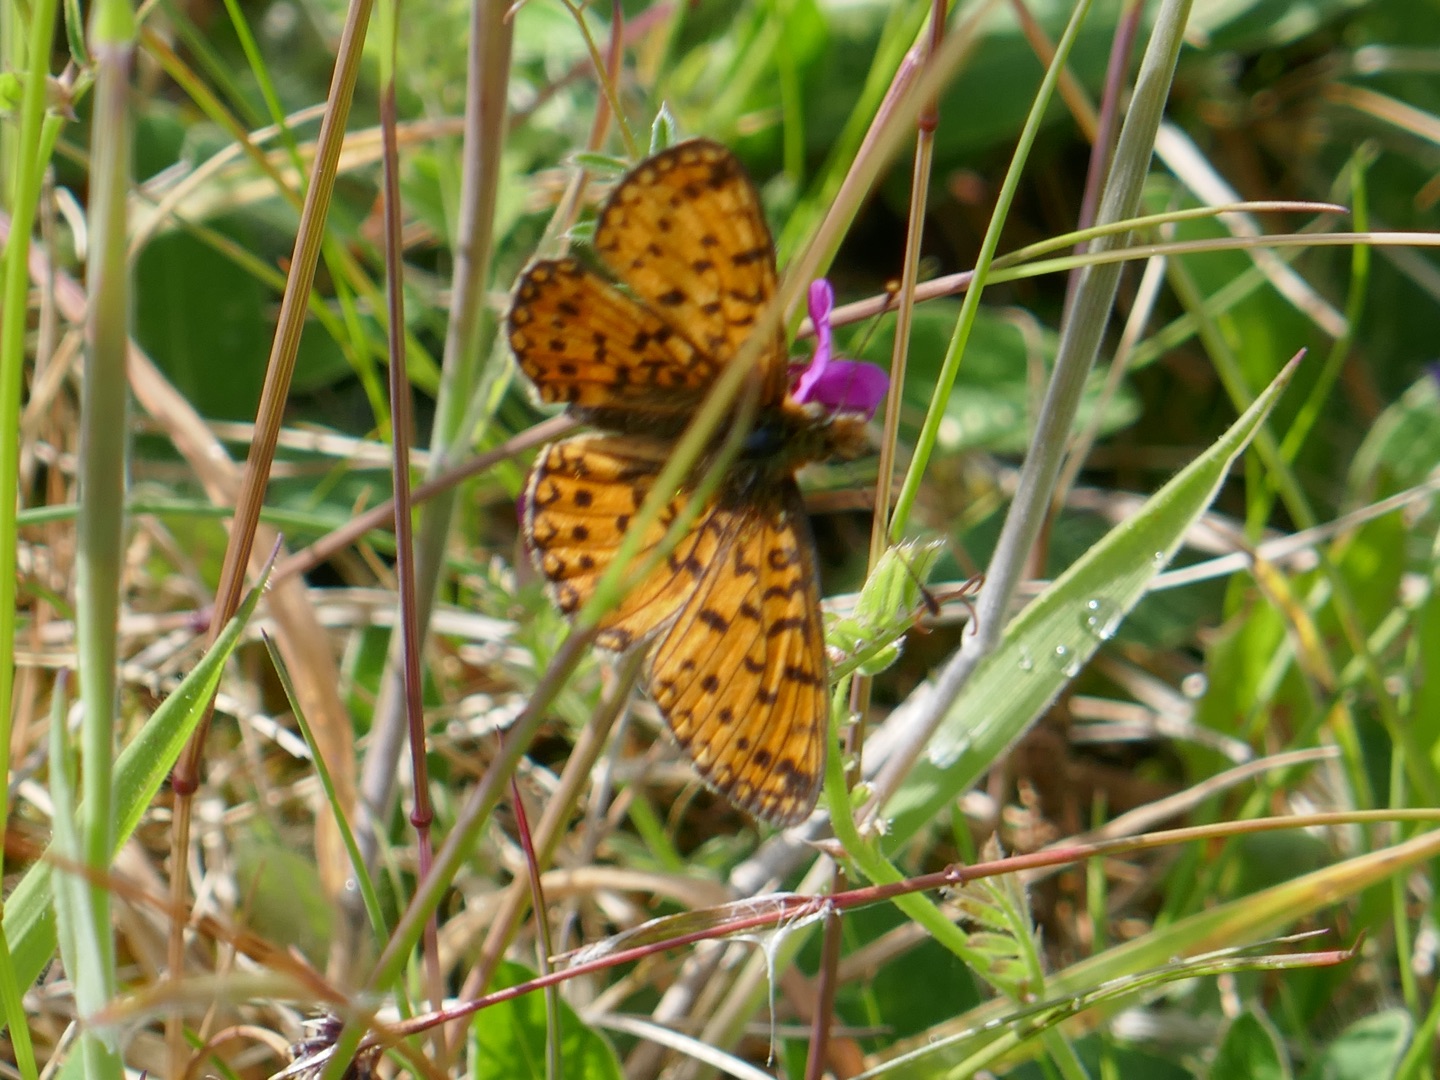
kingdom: Animalia
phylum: Arthropoda
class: Insecta
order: Lepidoptera
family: Nymphalidae
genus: Boloria
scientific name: Boloria selene
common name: Brunlig perlemorsommerfugl
